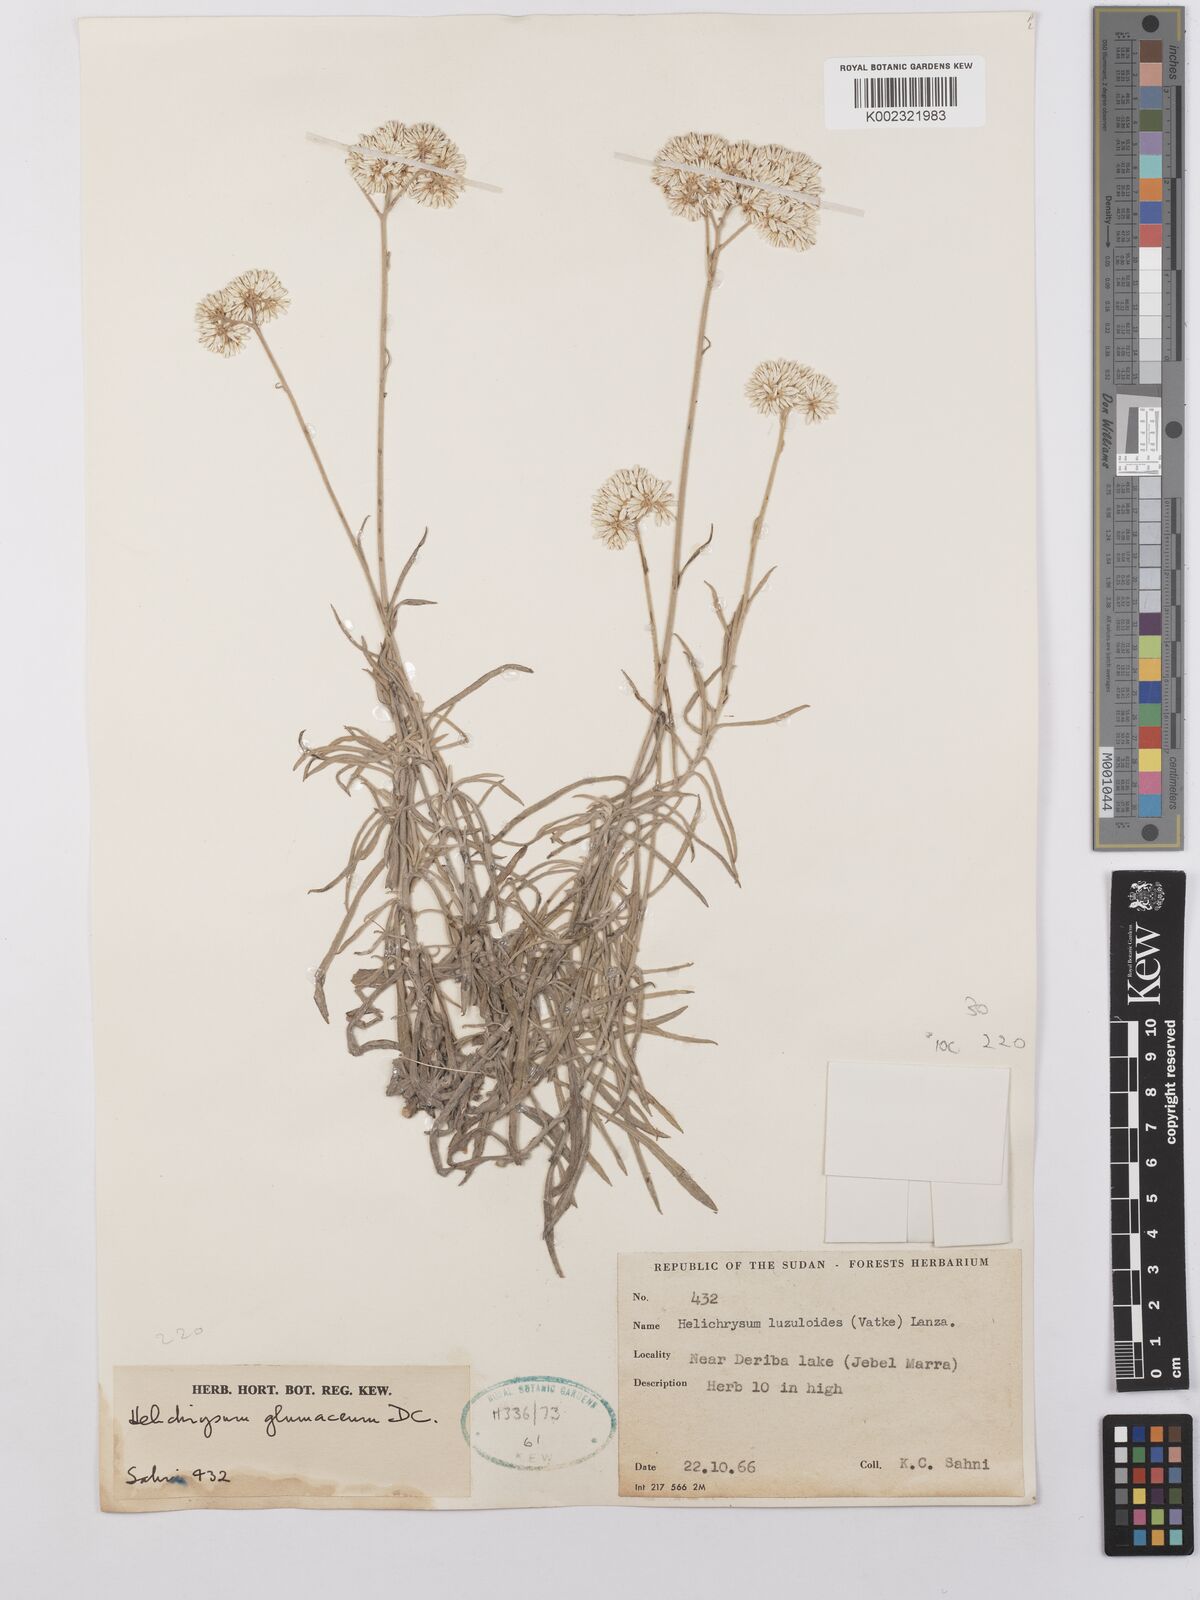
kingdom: Plantae
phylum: Tracheophyta
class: Magnoliopsida
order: Asterales
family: Asteraceae
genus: Helichrysum
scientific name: Helichrysum glumaceum
